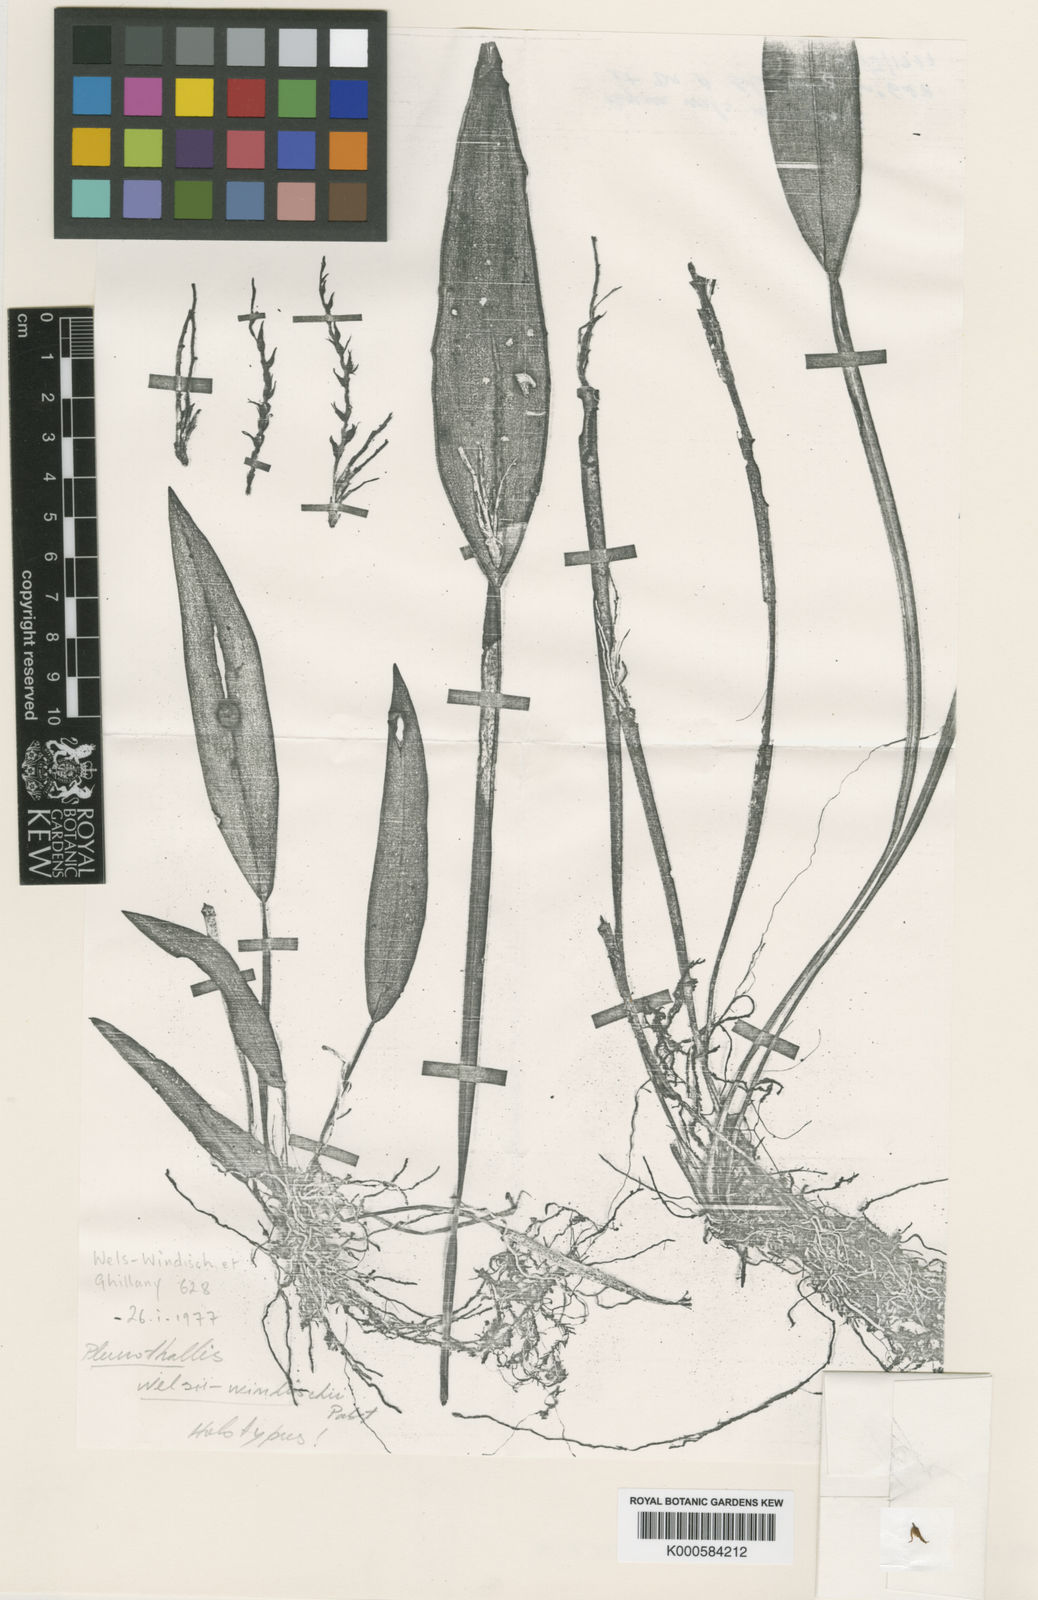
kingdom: Plantae
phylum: Tracheophyta
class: Liliopsida
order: Asparagales
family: Orchidaceae
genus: Acianthera
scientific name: Acianthera welsiae-windischiae
